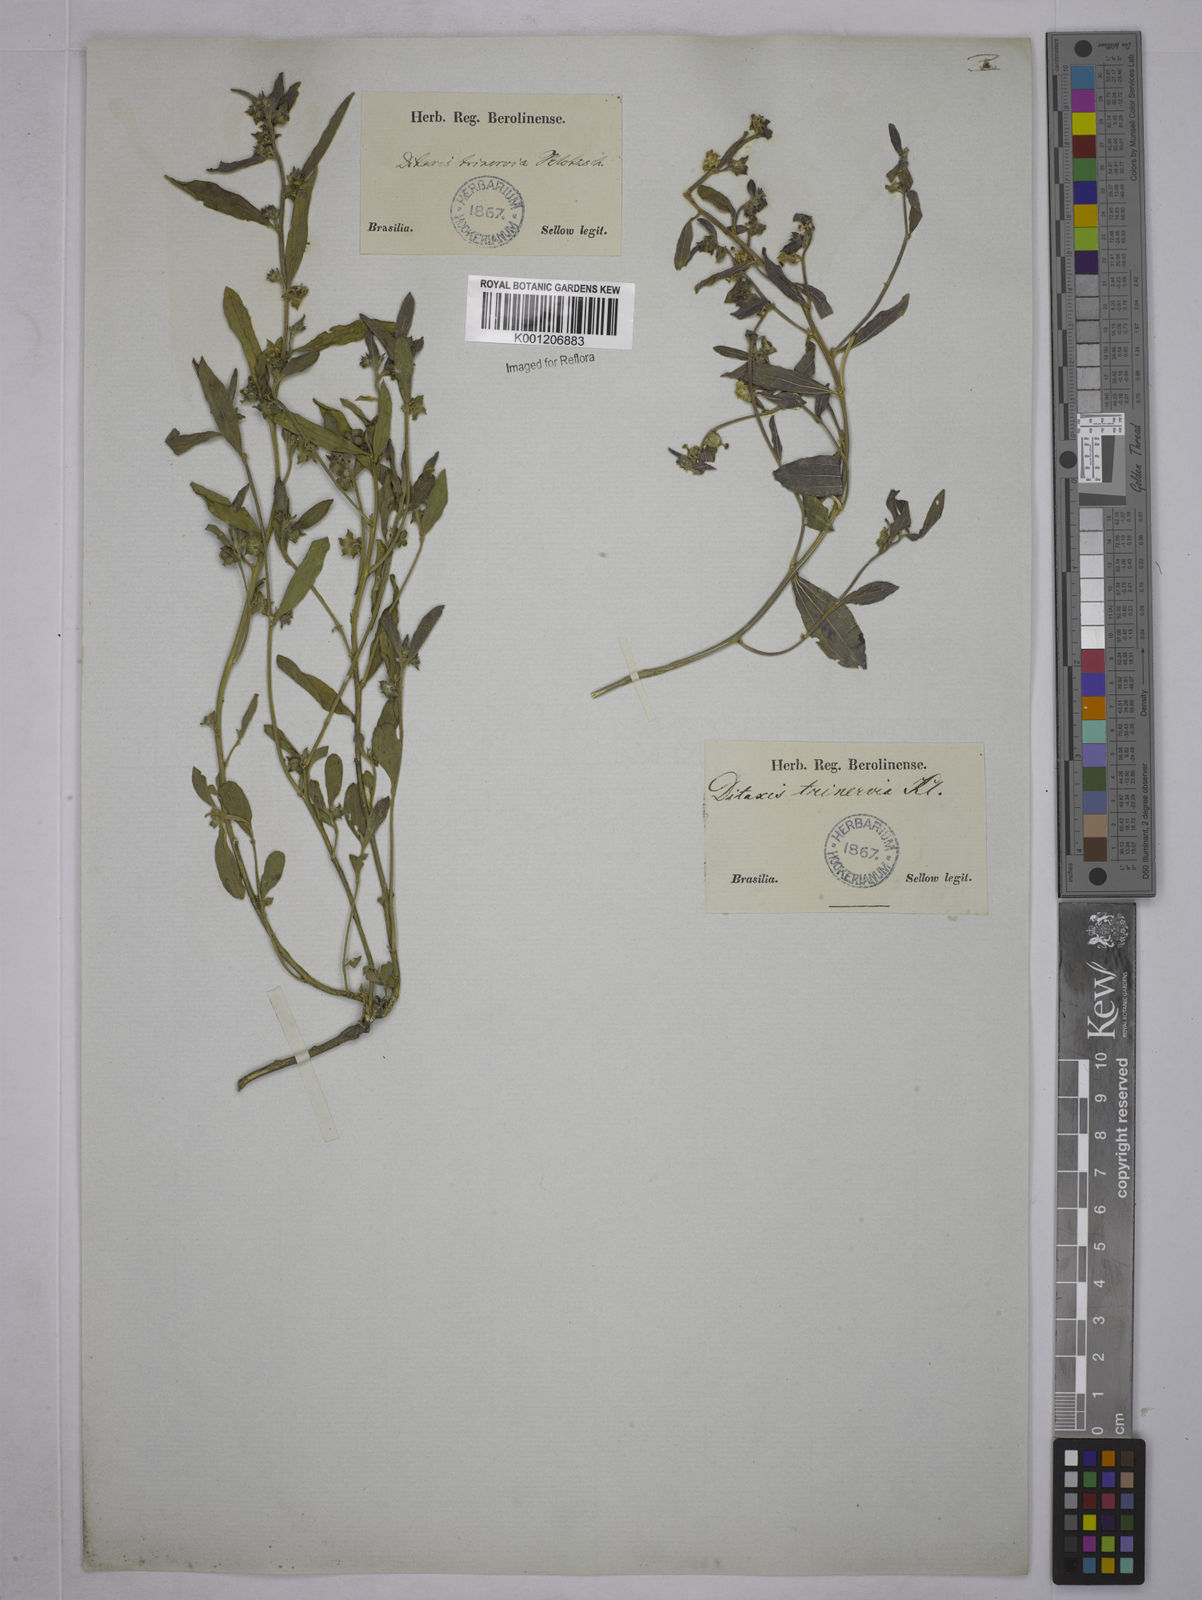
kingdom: Plantae
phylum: Tracheophyta
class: Magnoliopsida
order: Malpighiales
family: Euphorbiaceae
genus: Ditaxis
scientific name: Ditaxis montevidensis
